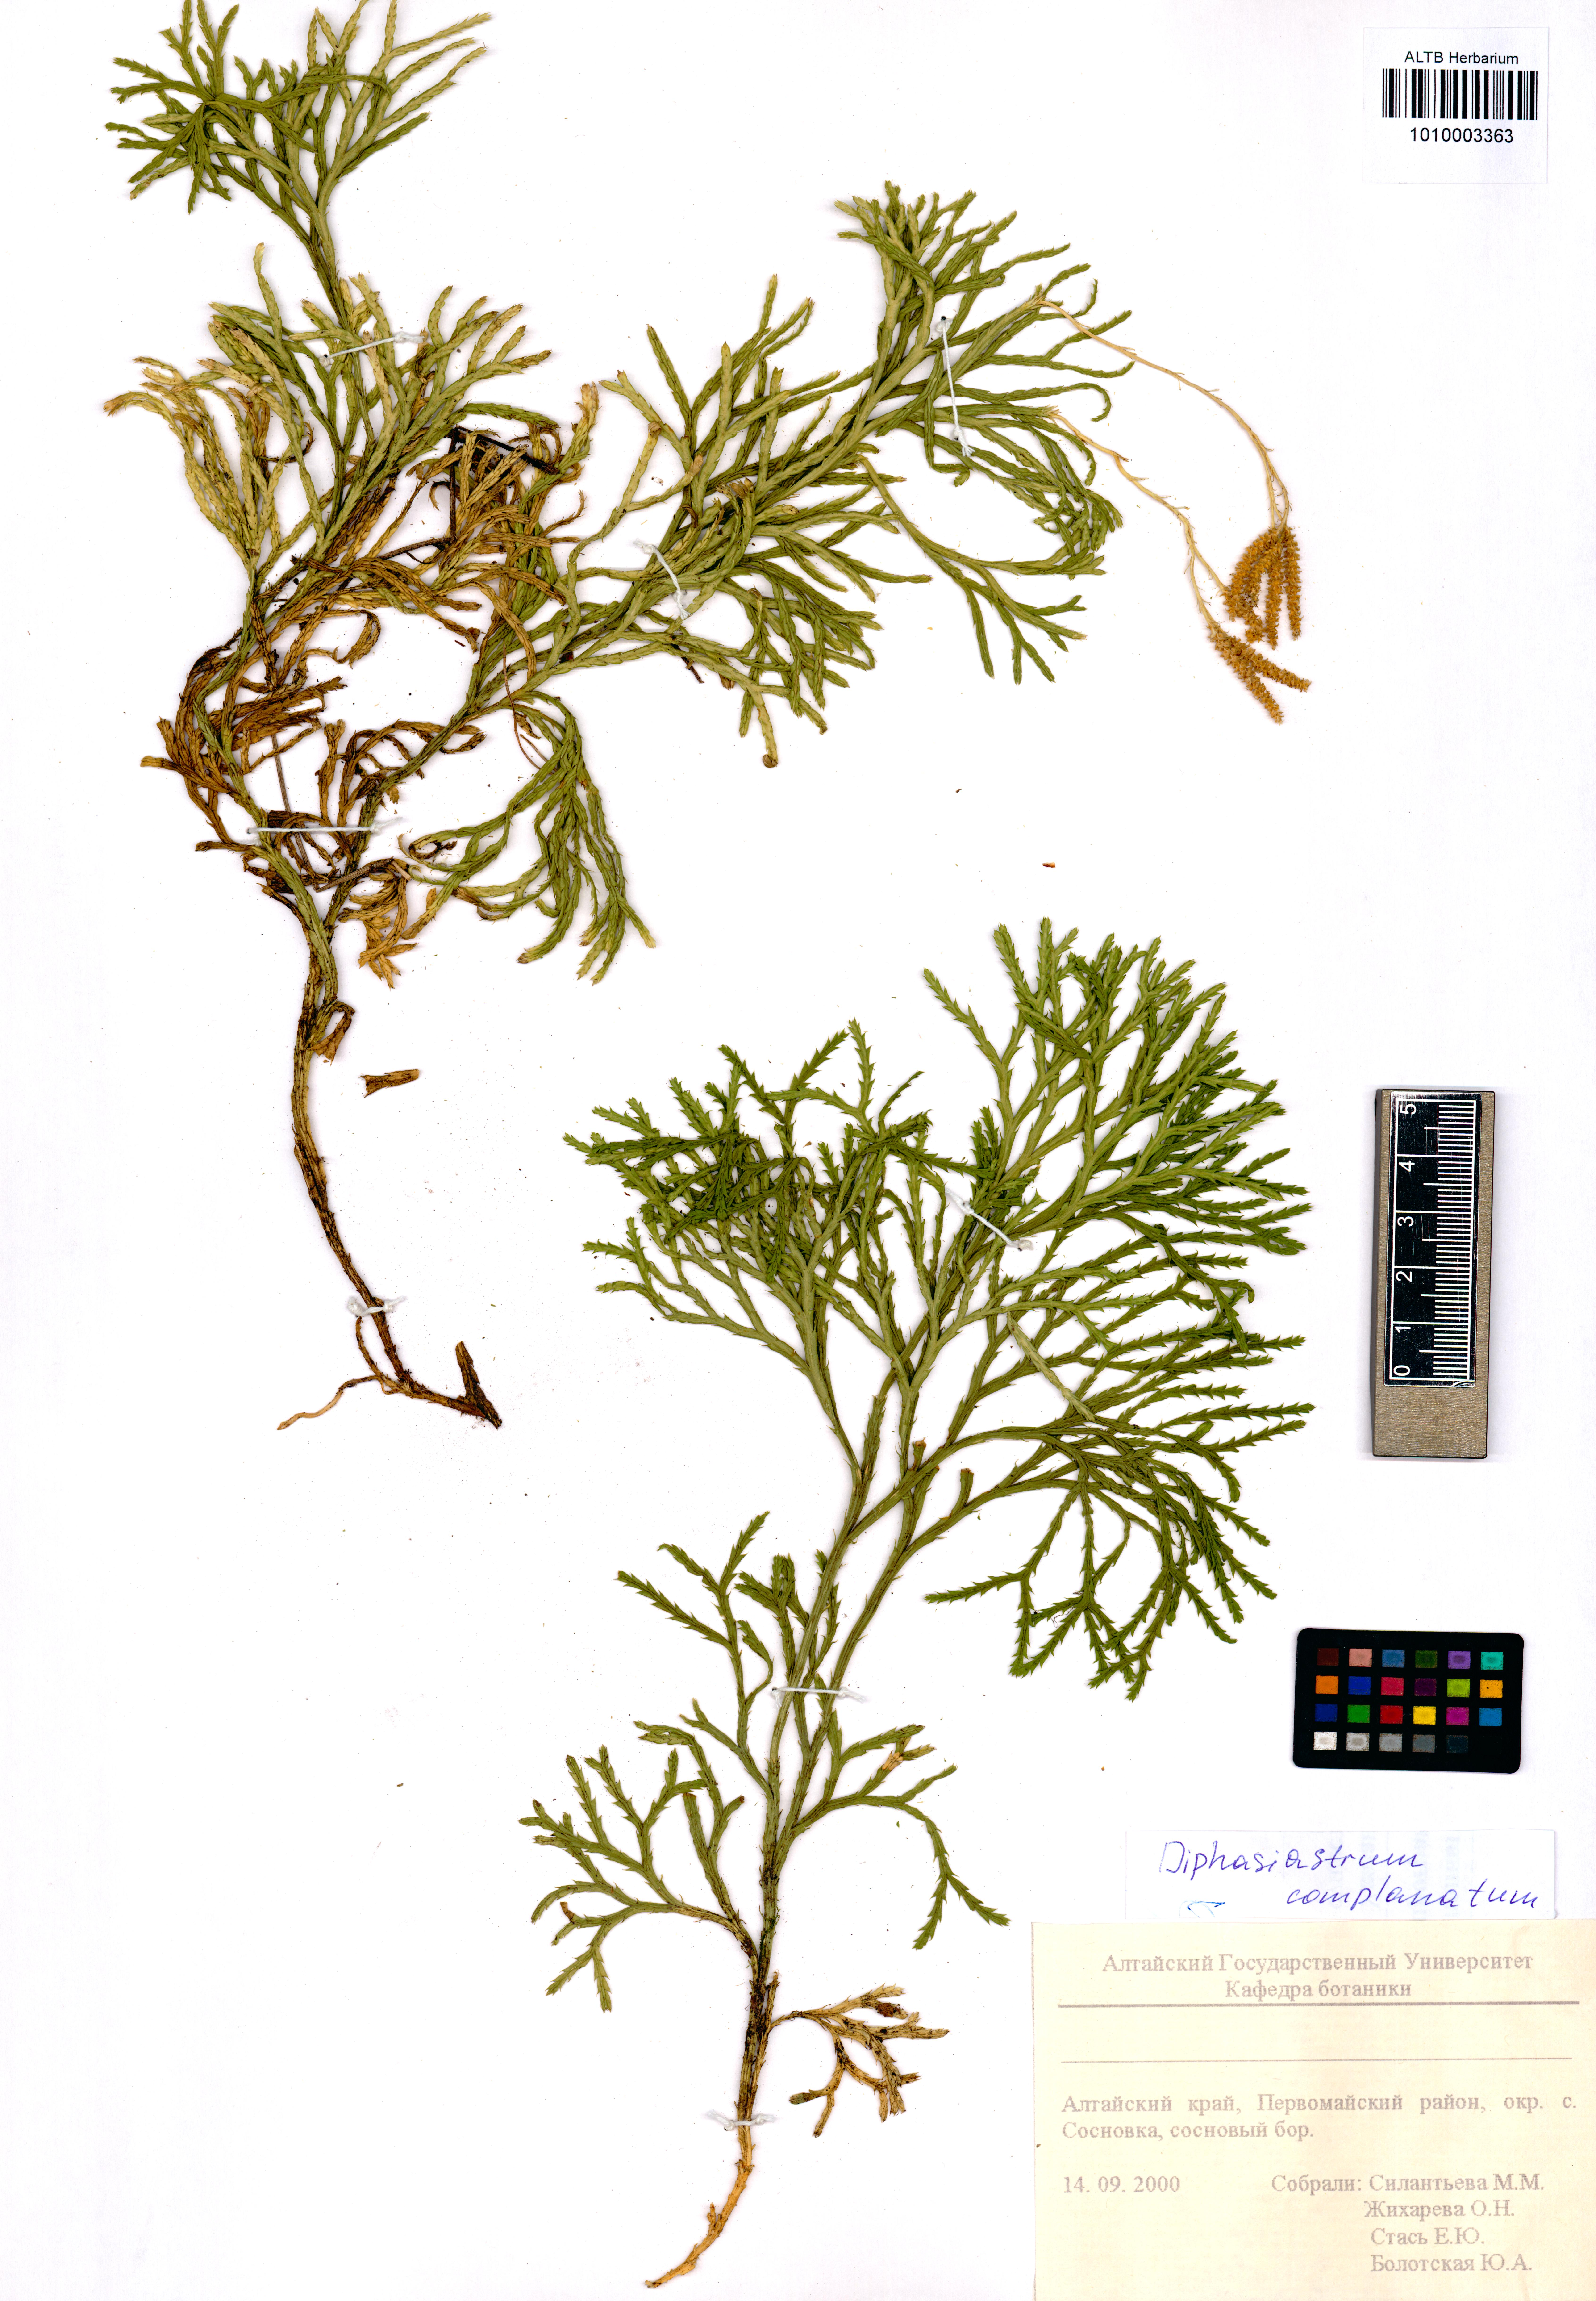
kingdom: Plantae
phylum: Tracheophyta
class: Lycopodiopsida
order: Lycopodiales
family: Lycopodiaceae
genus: Diphasiastrum
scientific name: Diphasiastrum complanatum
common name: Northern running-pine
